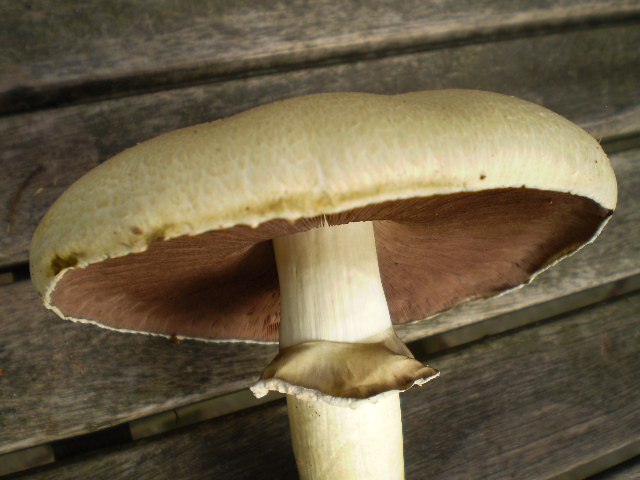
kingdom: Fungi
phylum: Basidiomycota
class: Agaricomycetes
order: Agaricales
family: Agaricaceae
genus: Agaricus
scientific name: Agaricus arvensis
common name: ager-champignon
